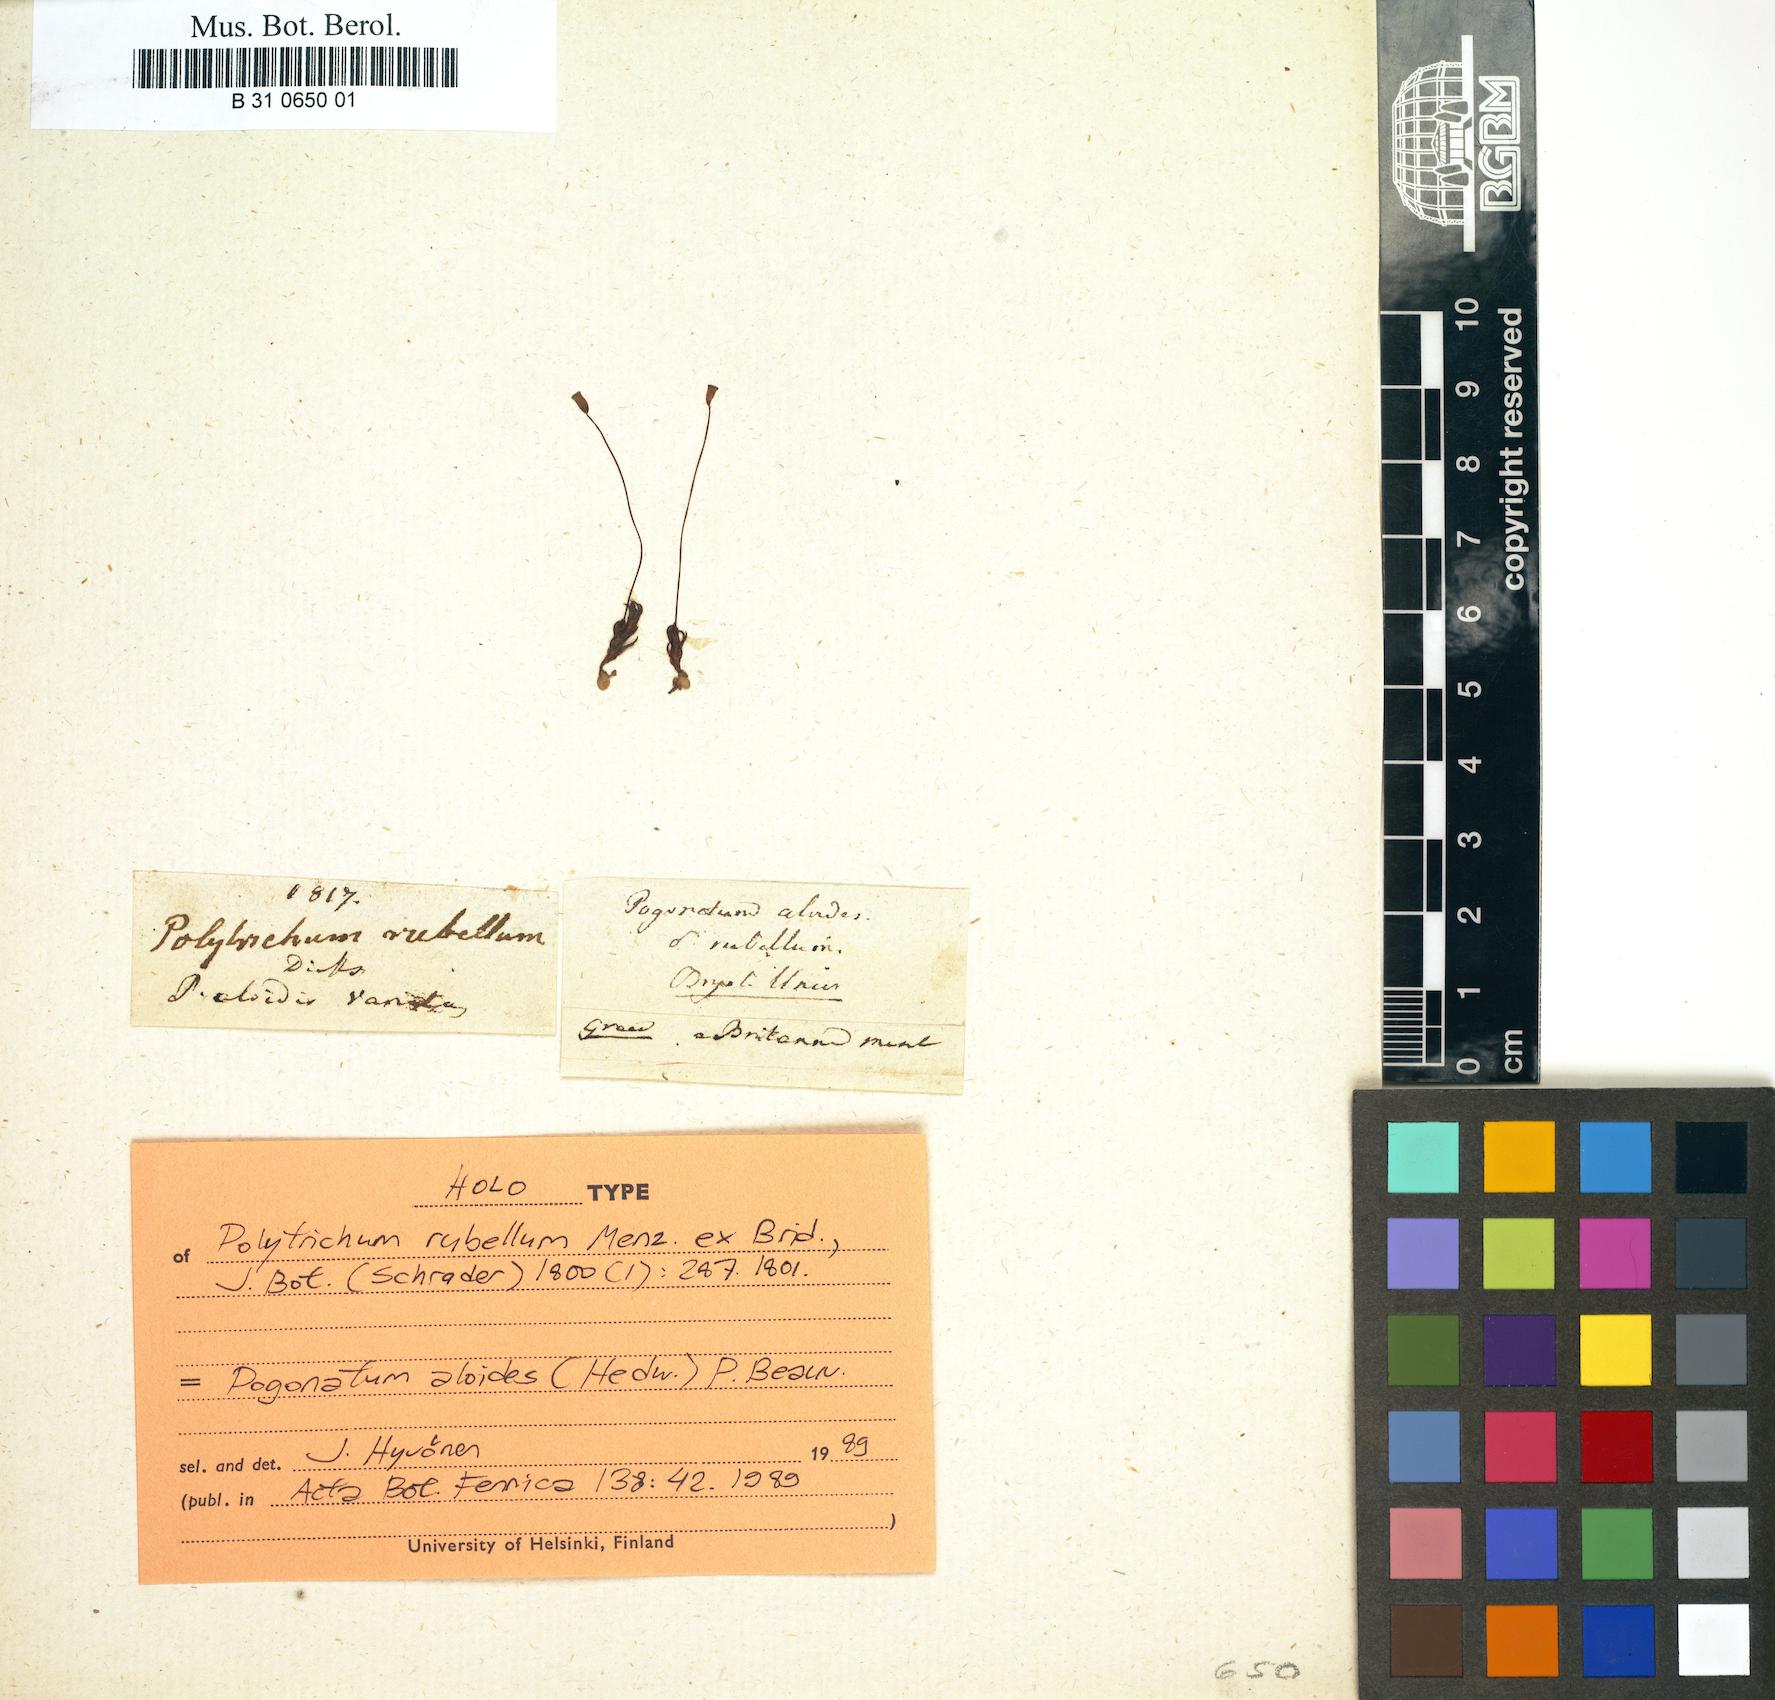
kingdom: Plantae
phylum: Bryophyta
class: Polytrichopsida
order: Polytrichales
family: Polytrichaceae
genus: Pogonatum
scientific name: Pogonatum aloides
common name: Aloe haircap
